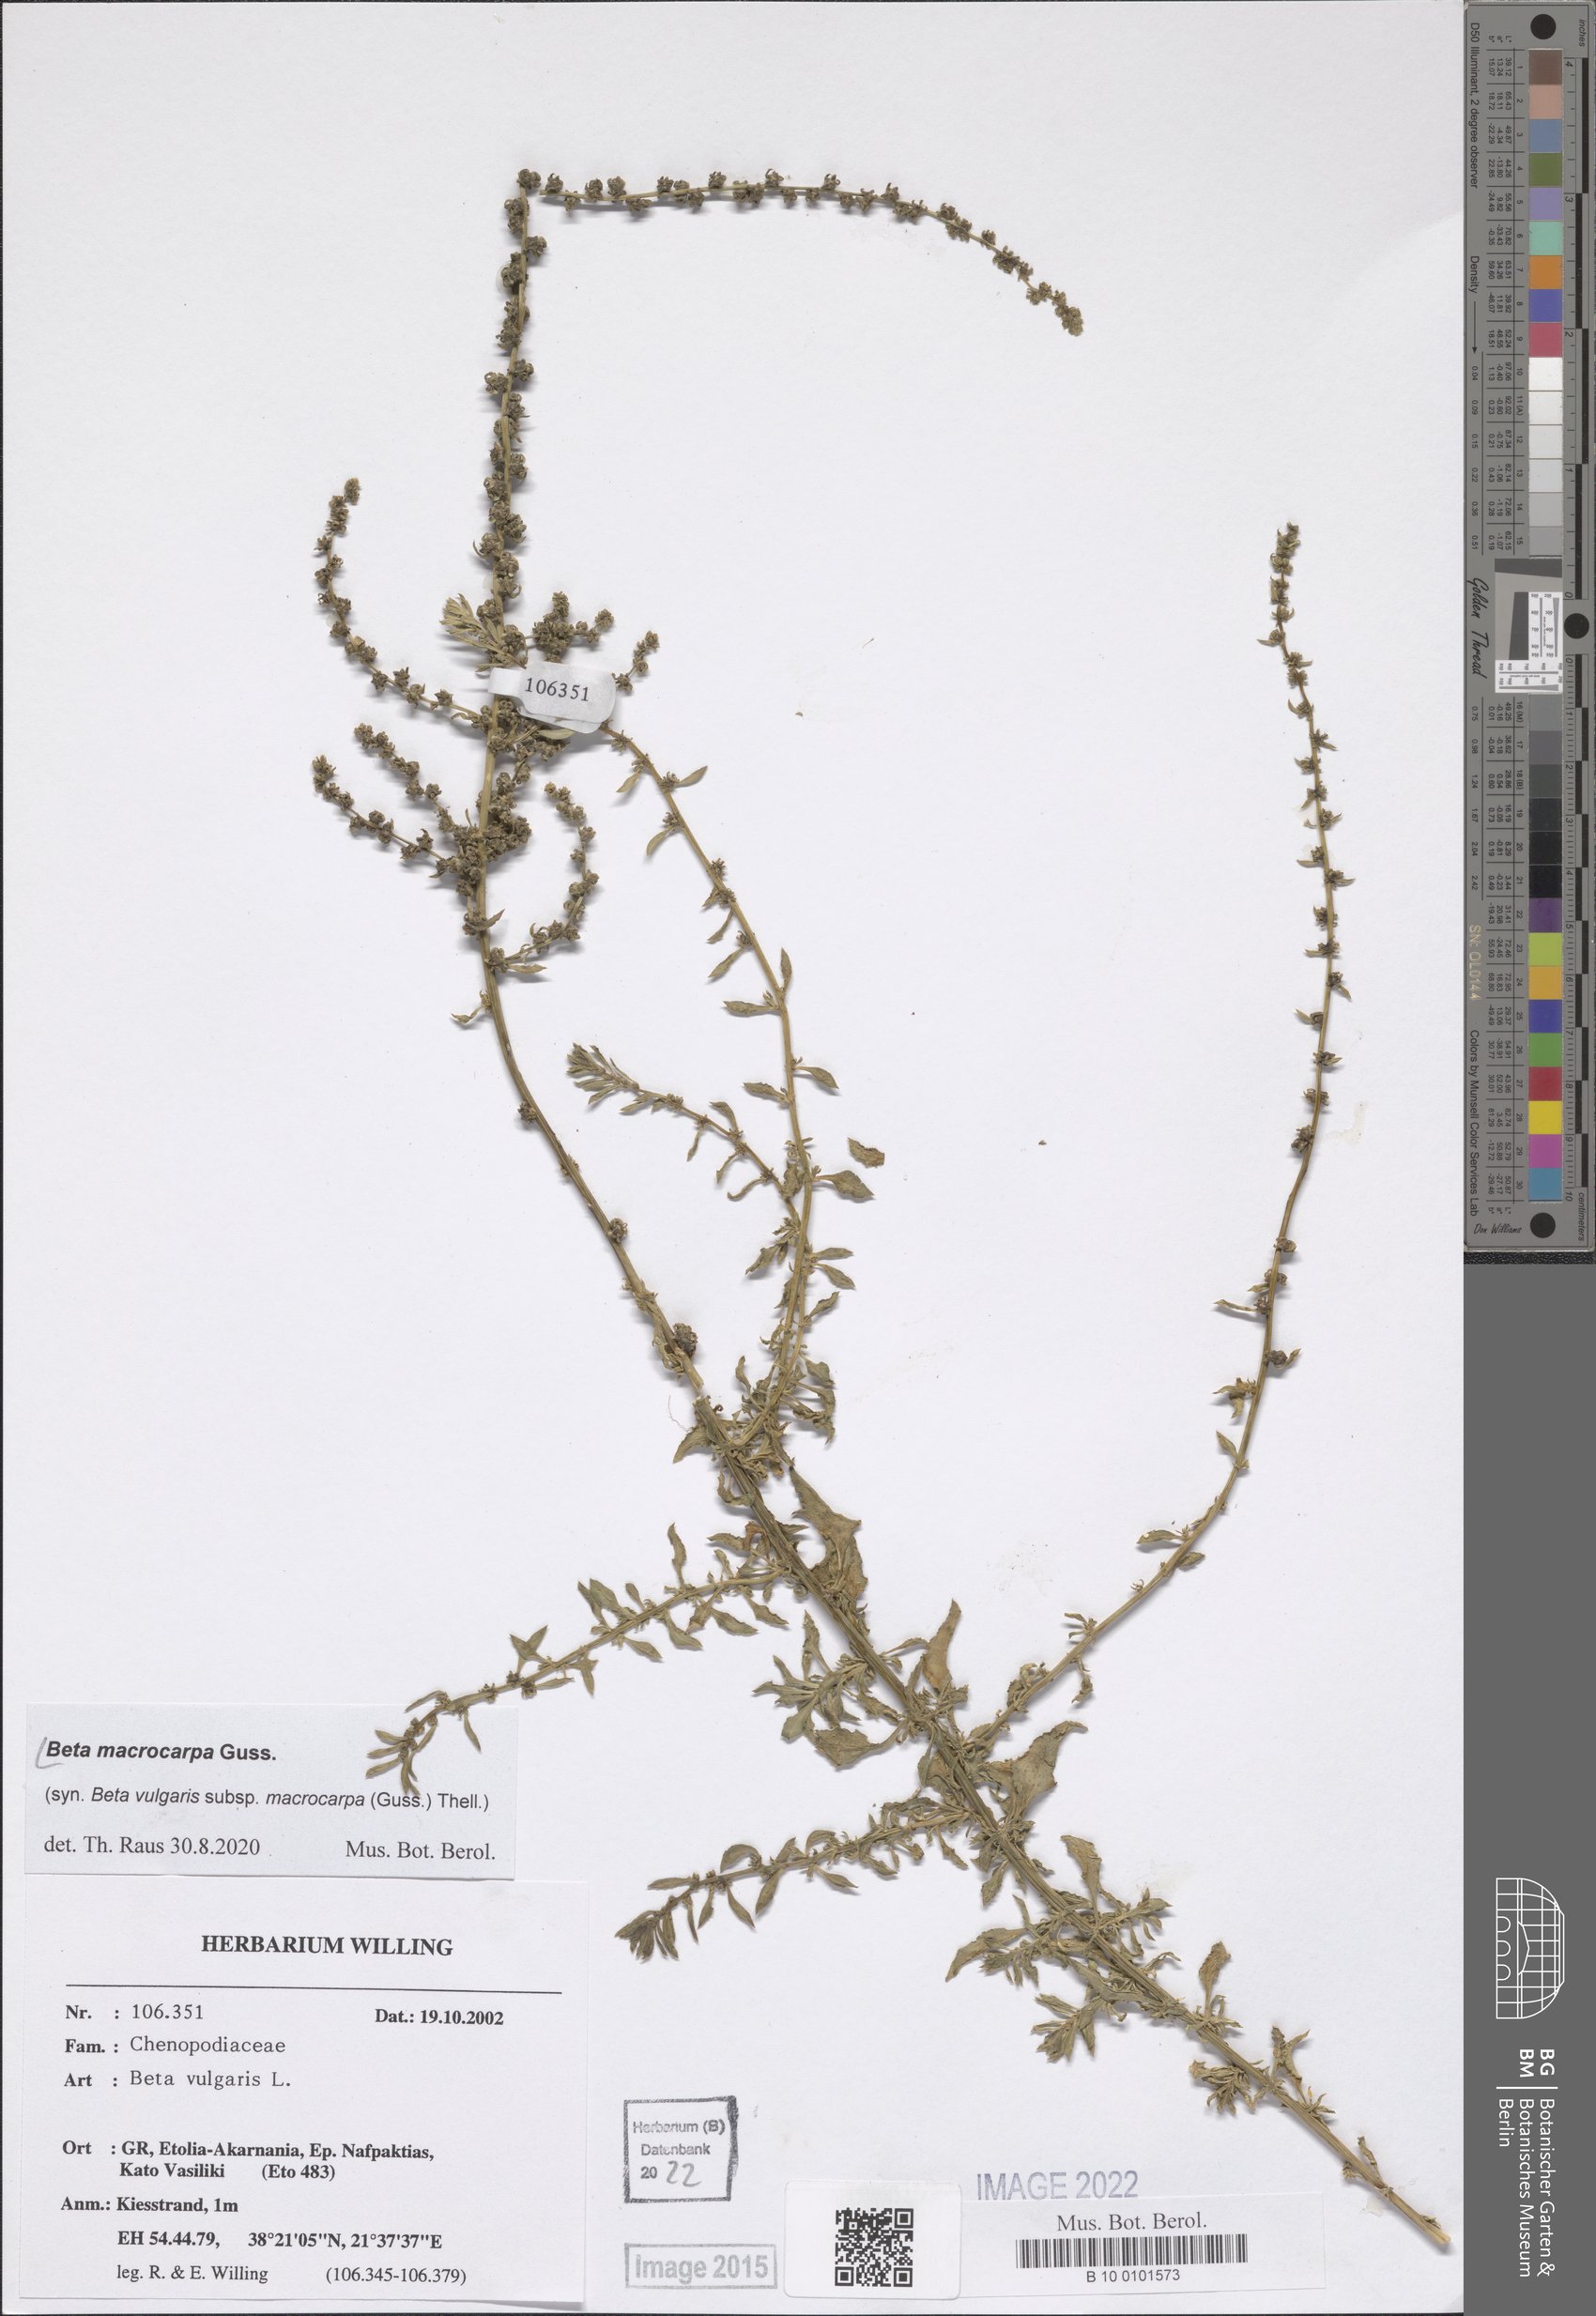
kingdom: Plantae
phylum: Tracheophyta
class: Magnoliopsida
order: Caryophyllales
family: Amaranthaceae
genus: Beta
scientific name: Beta macrocarpa
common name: Beet
